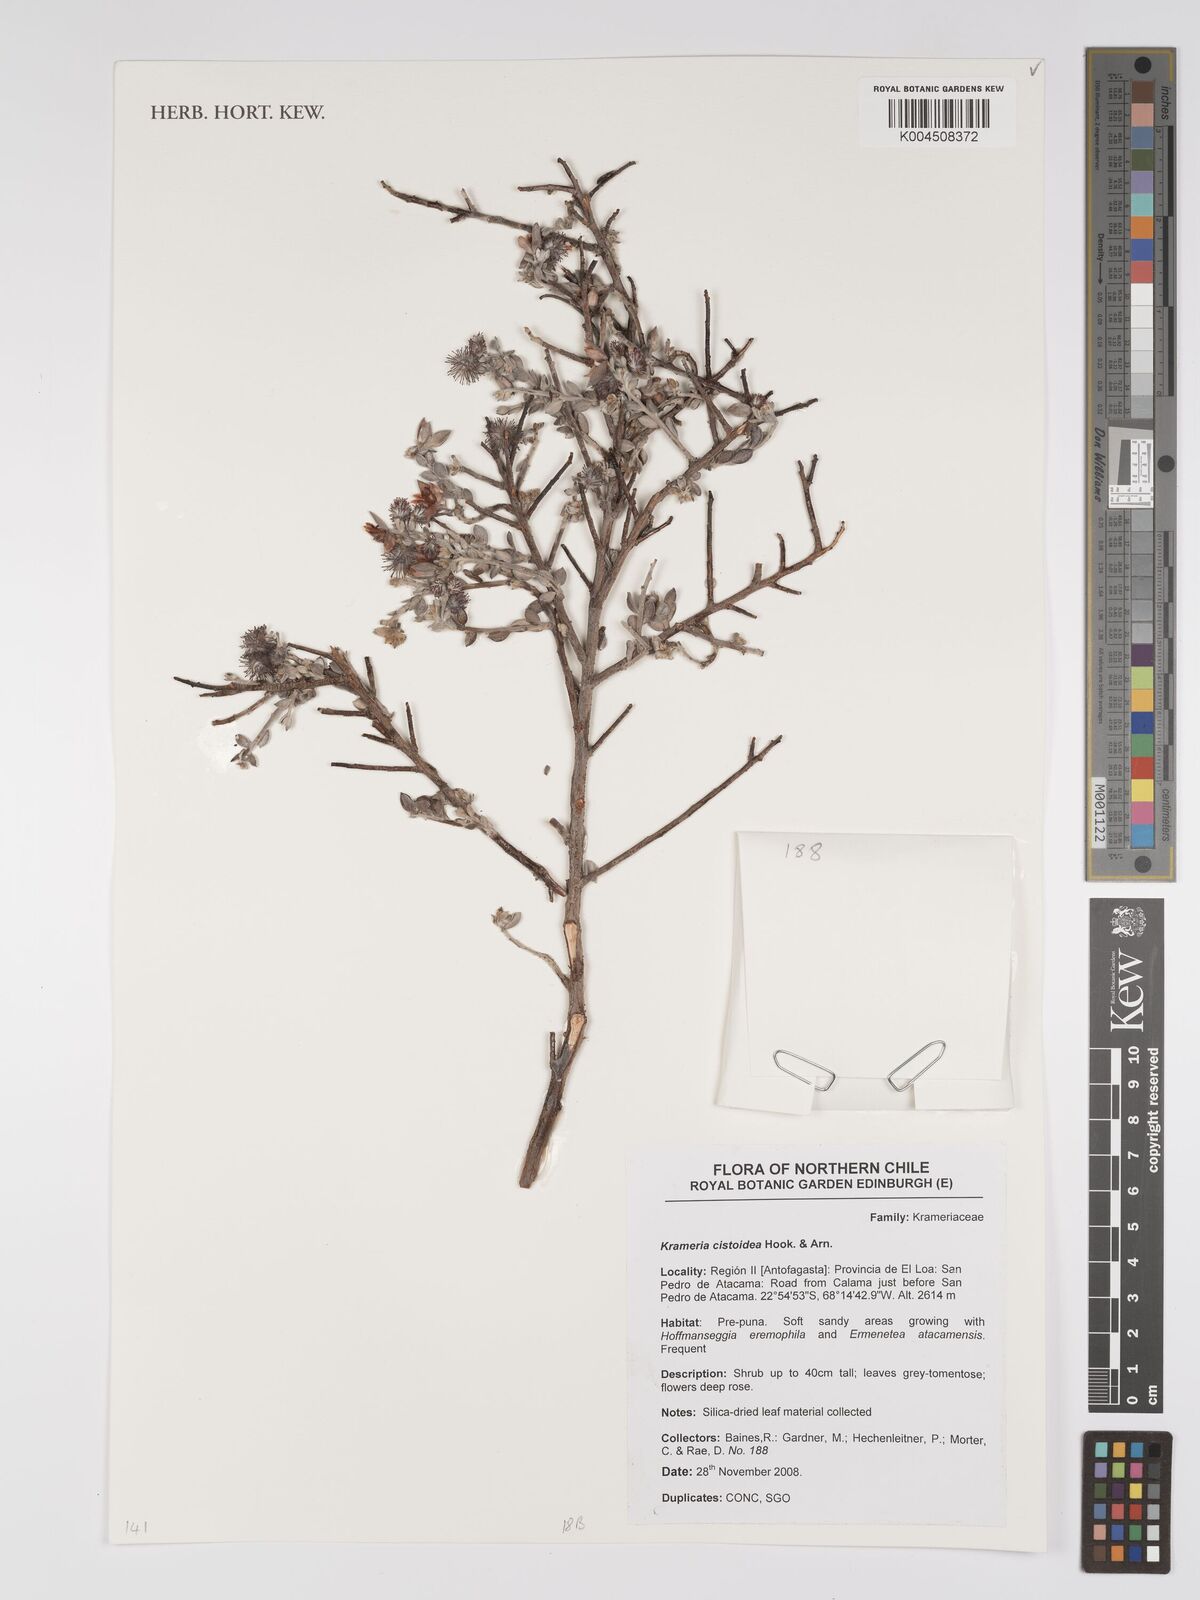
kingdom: Plantae
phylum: Tracheophyta
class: Magnoliopsida
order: Zygophyllales
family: Krameriaceae
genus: Krameria
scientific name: Krameria cistoidea
